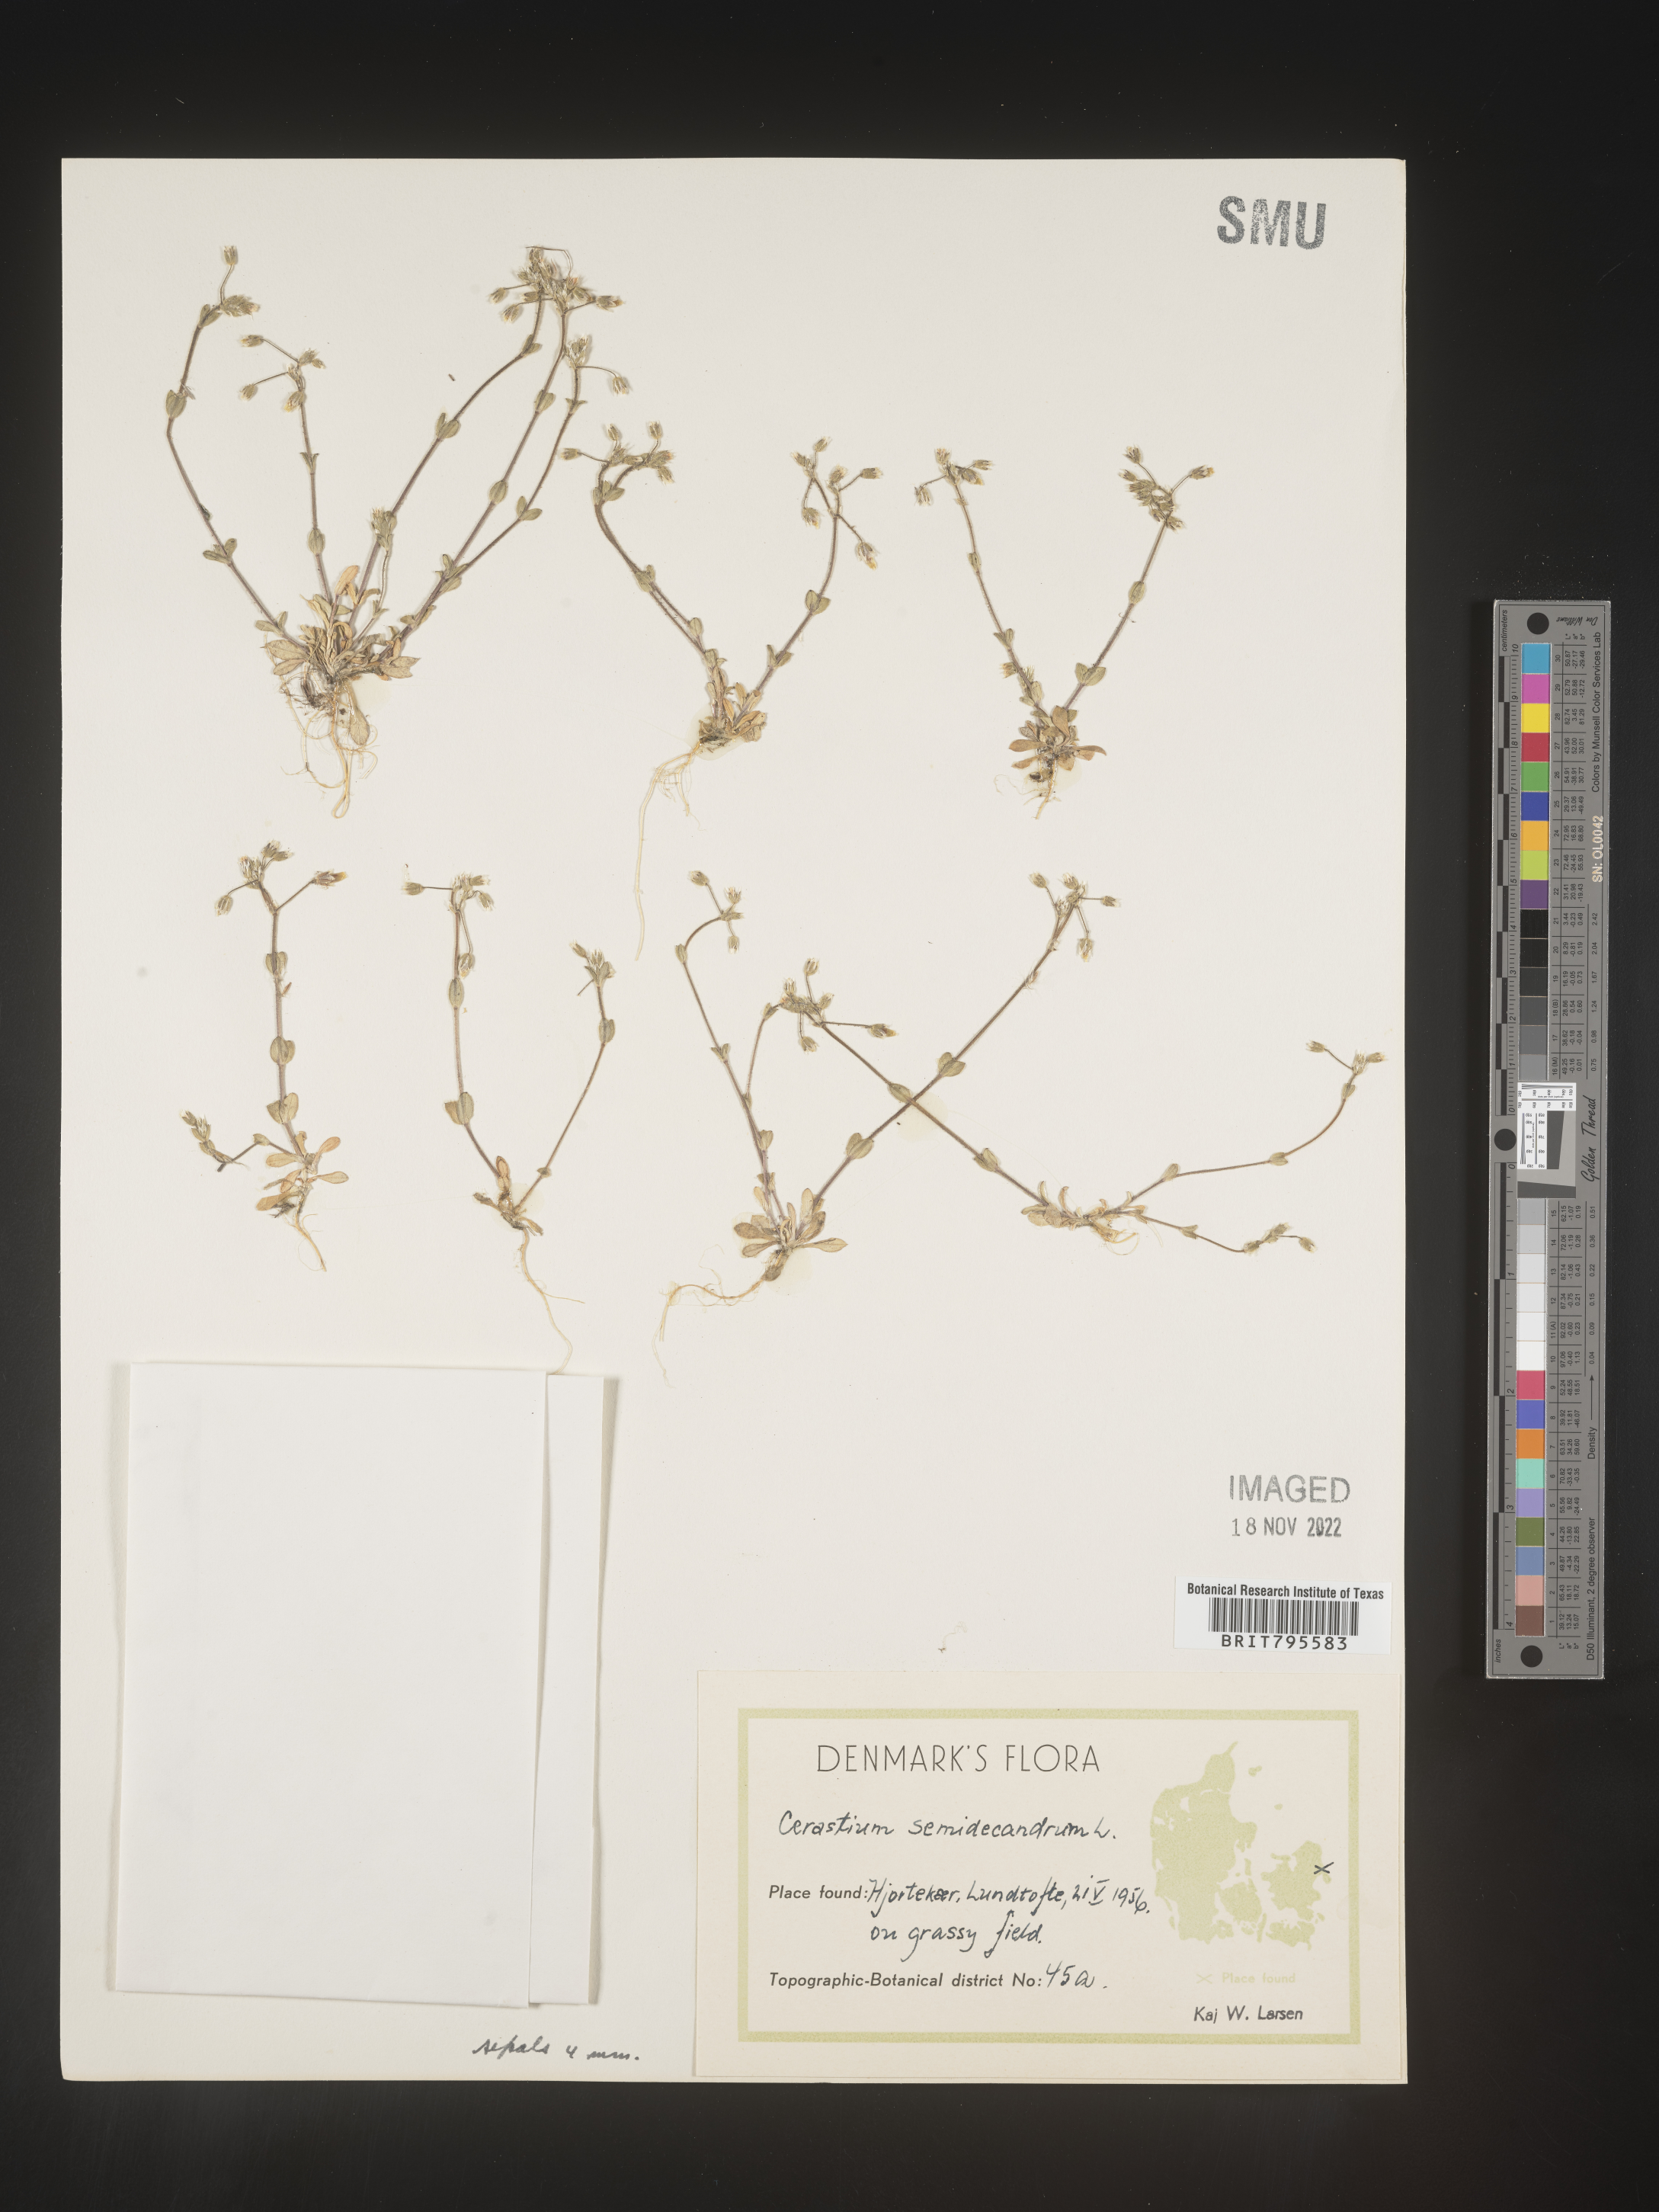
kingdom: Plantae
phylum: Tracheophyta
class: Magnoliopsida
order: Caryophyllales
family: Caryophyllaceae
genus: Cerastium
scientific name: Cerastium
